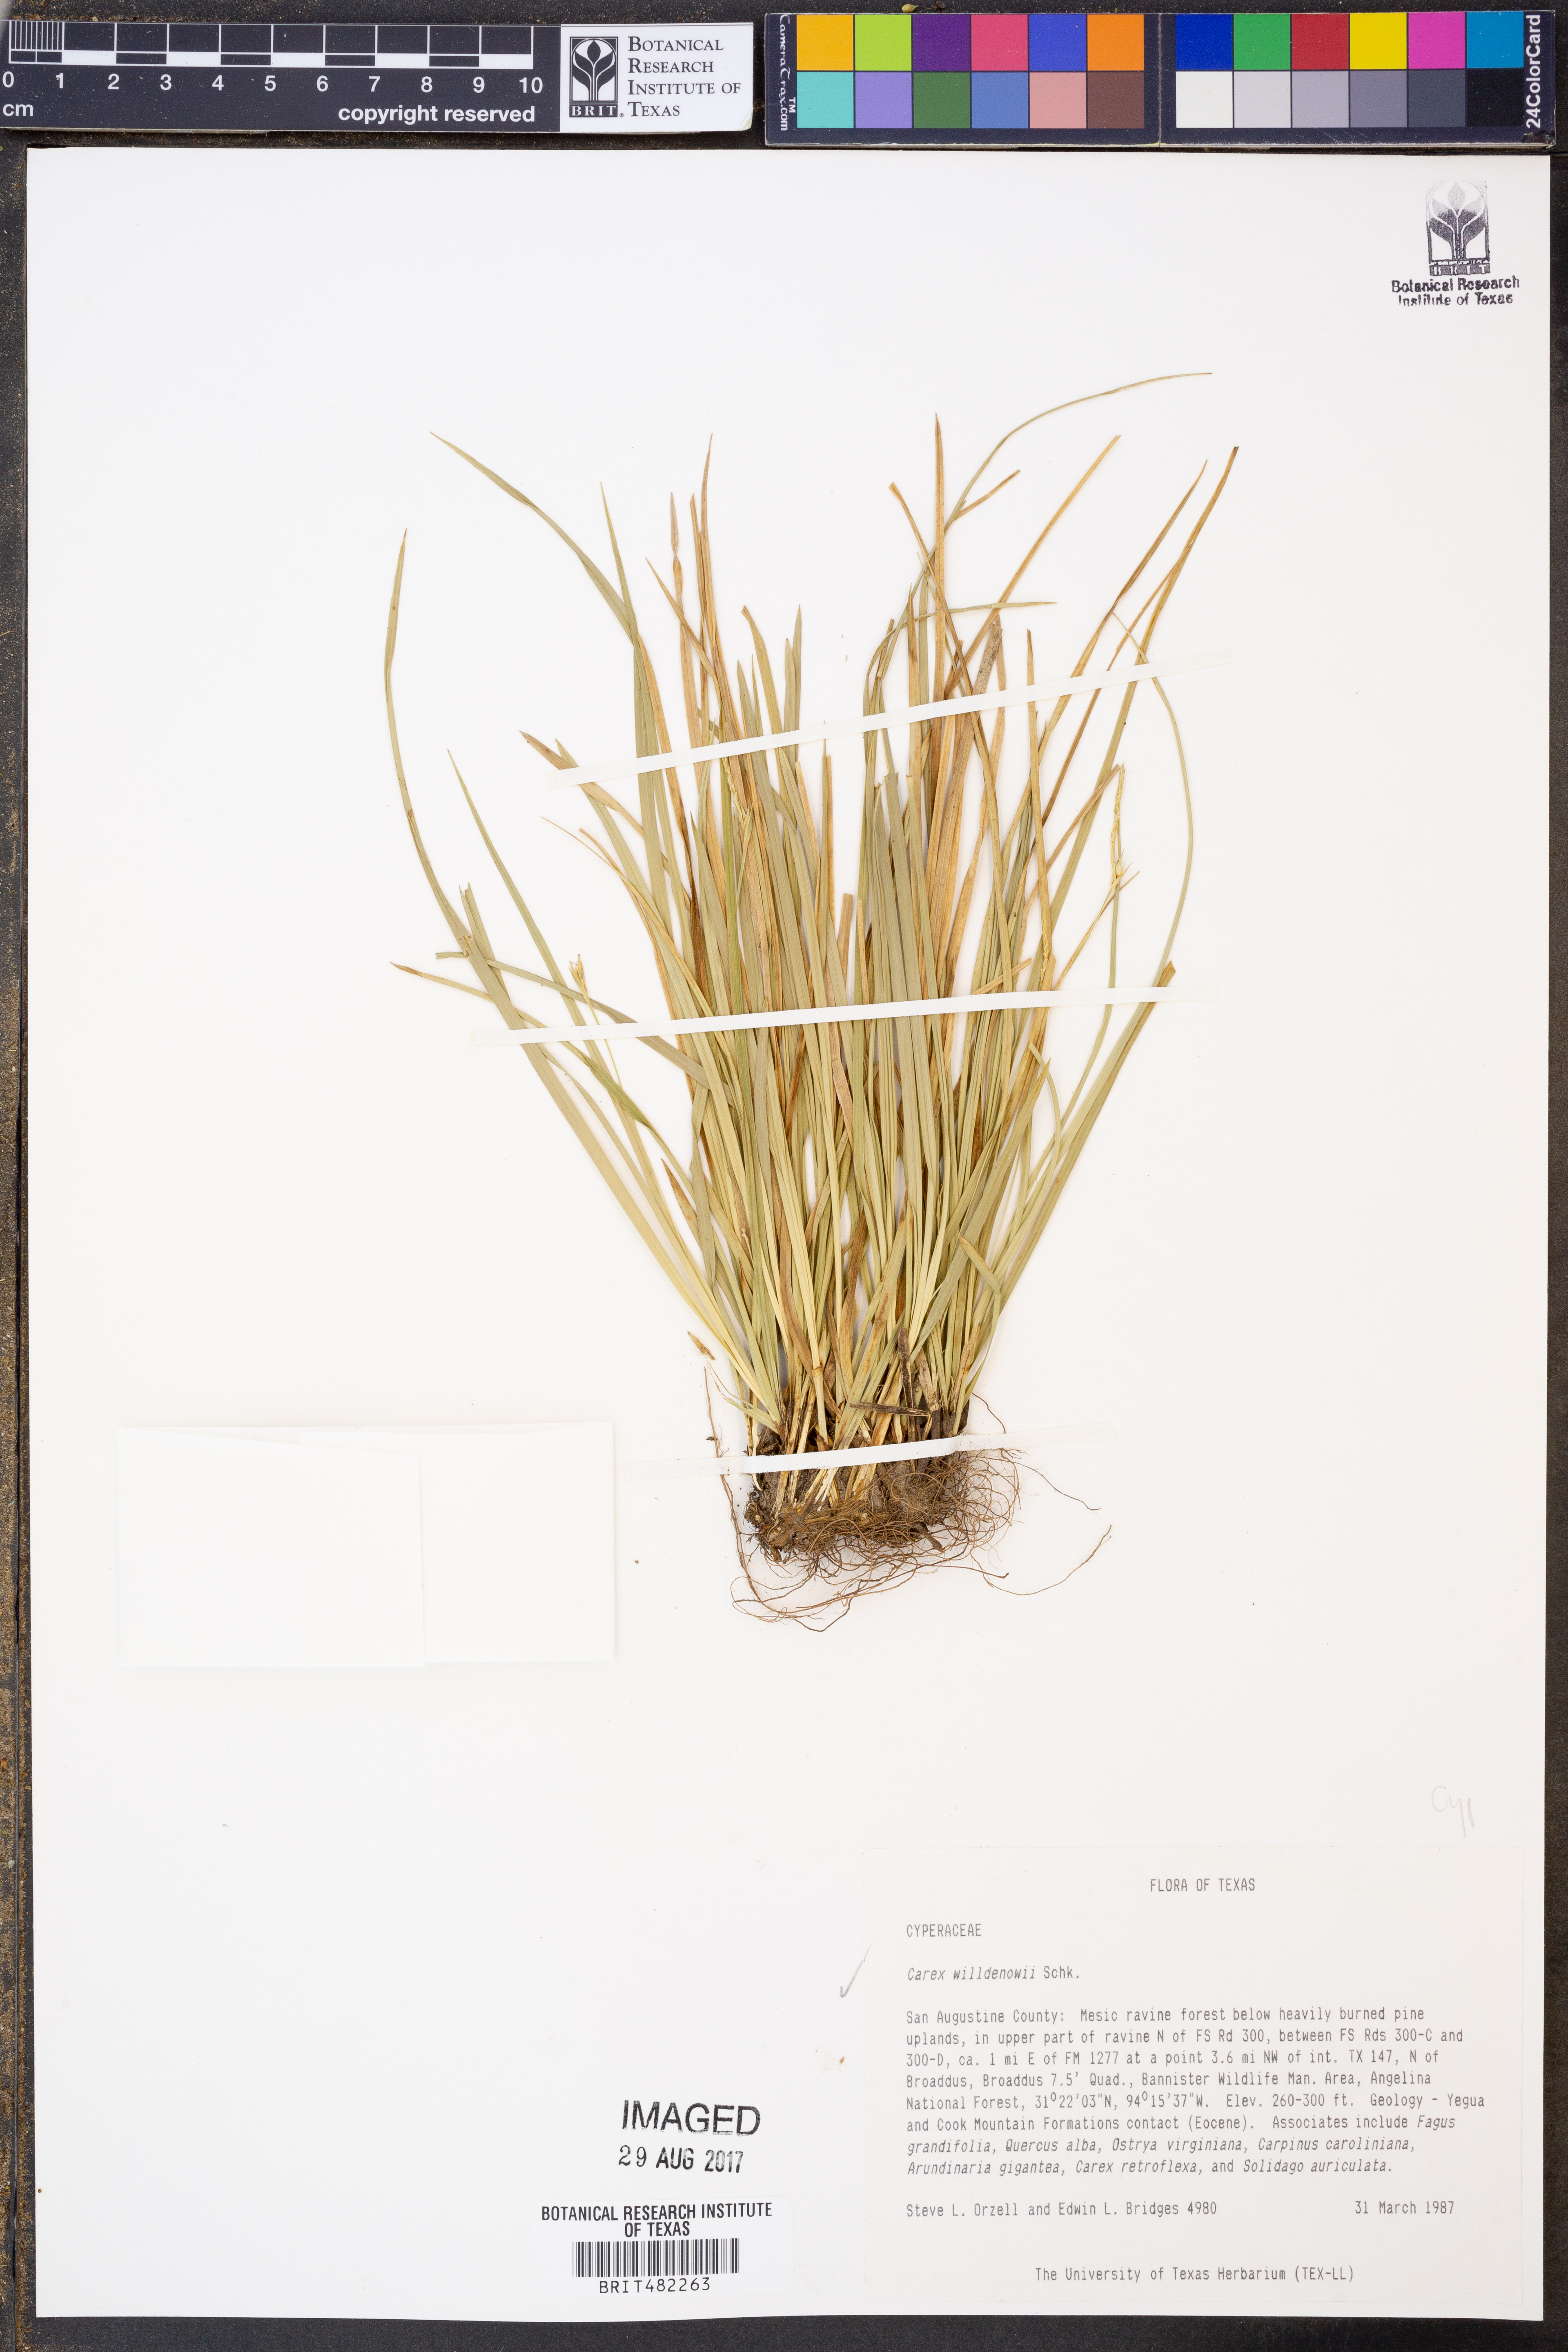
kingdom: Plantae
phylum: Tracheophyta
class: Liliopsida
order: Poales
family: Cyperaceae
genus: Carex
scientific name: Carex willdenowii
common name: Willdenow's sedge
